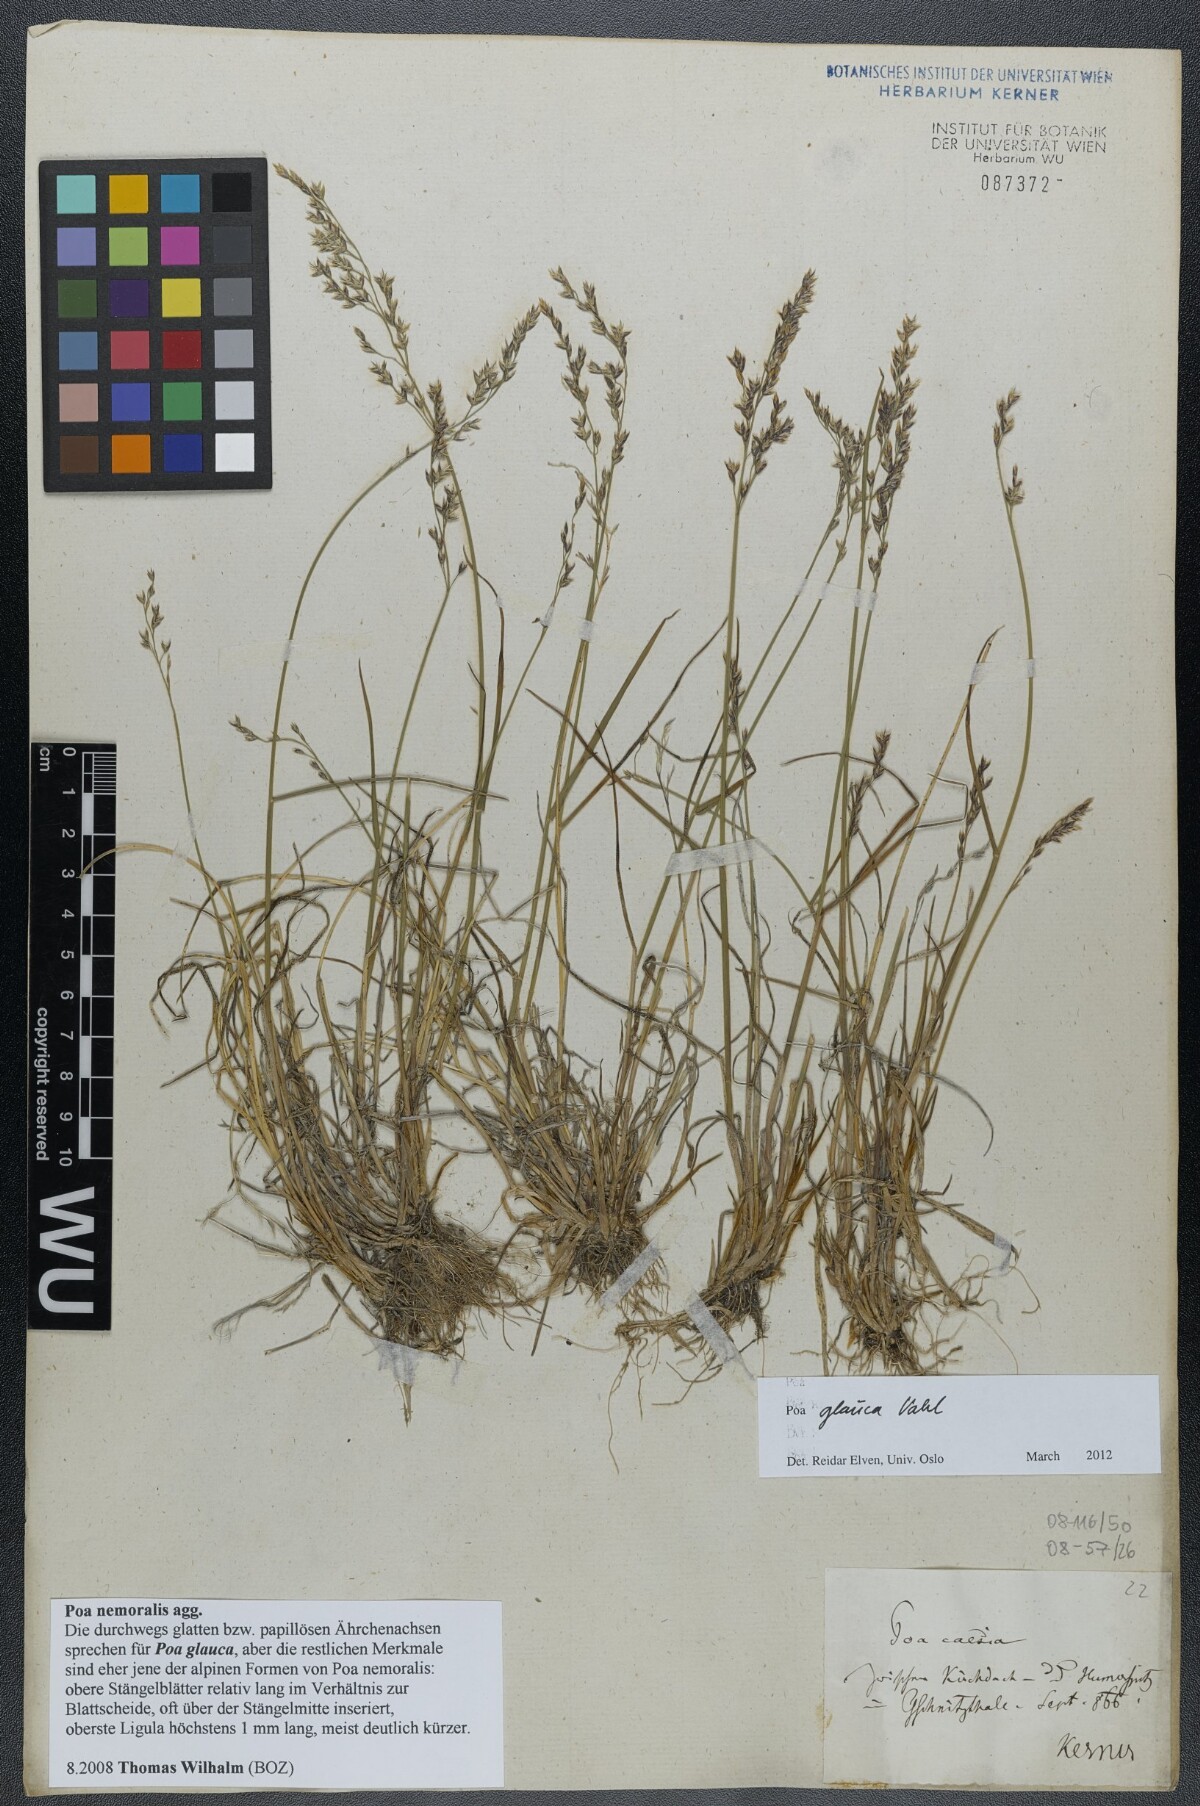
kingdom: Plantae
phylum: Tracheophyta
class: Liliopsida
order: Poales
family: Poaceae
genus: Poa
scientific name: Poa glauca
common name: Glaucous bluegrass
